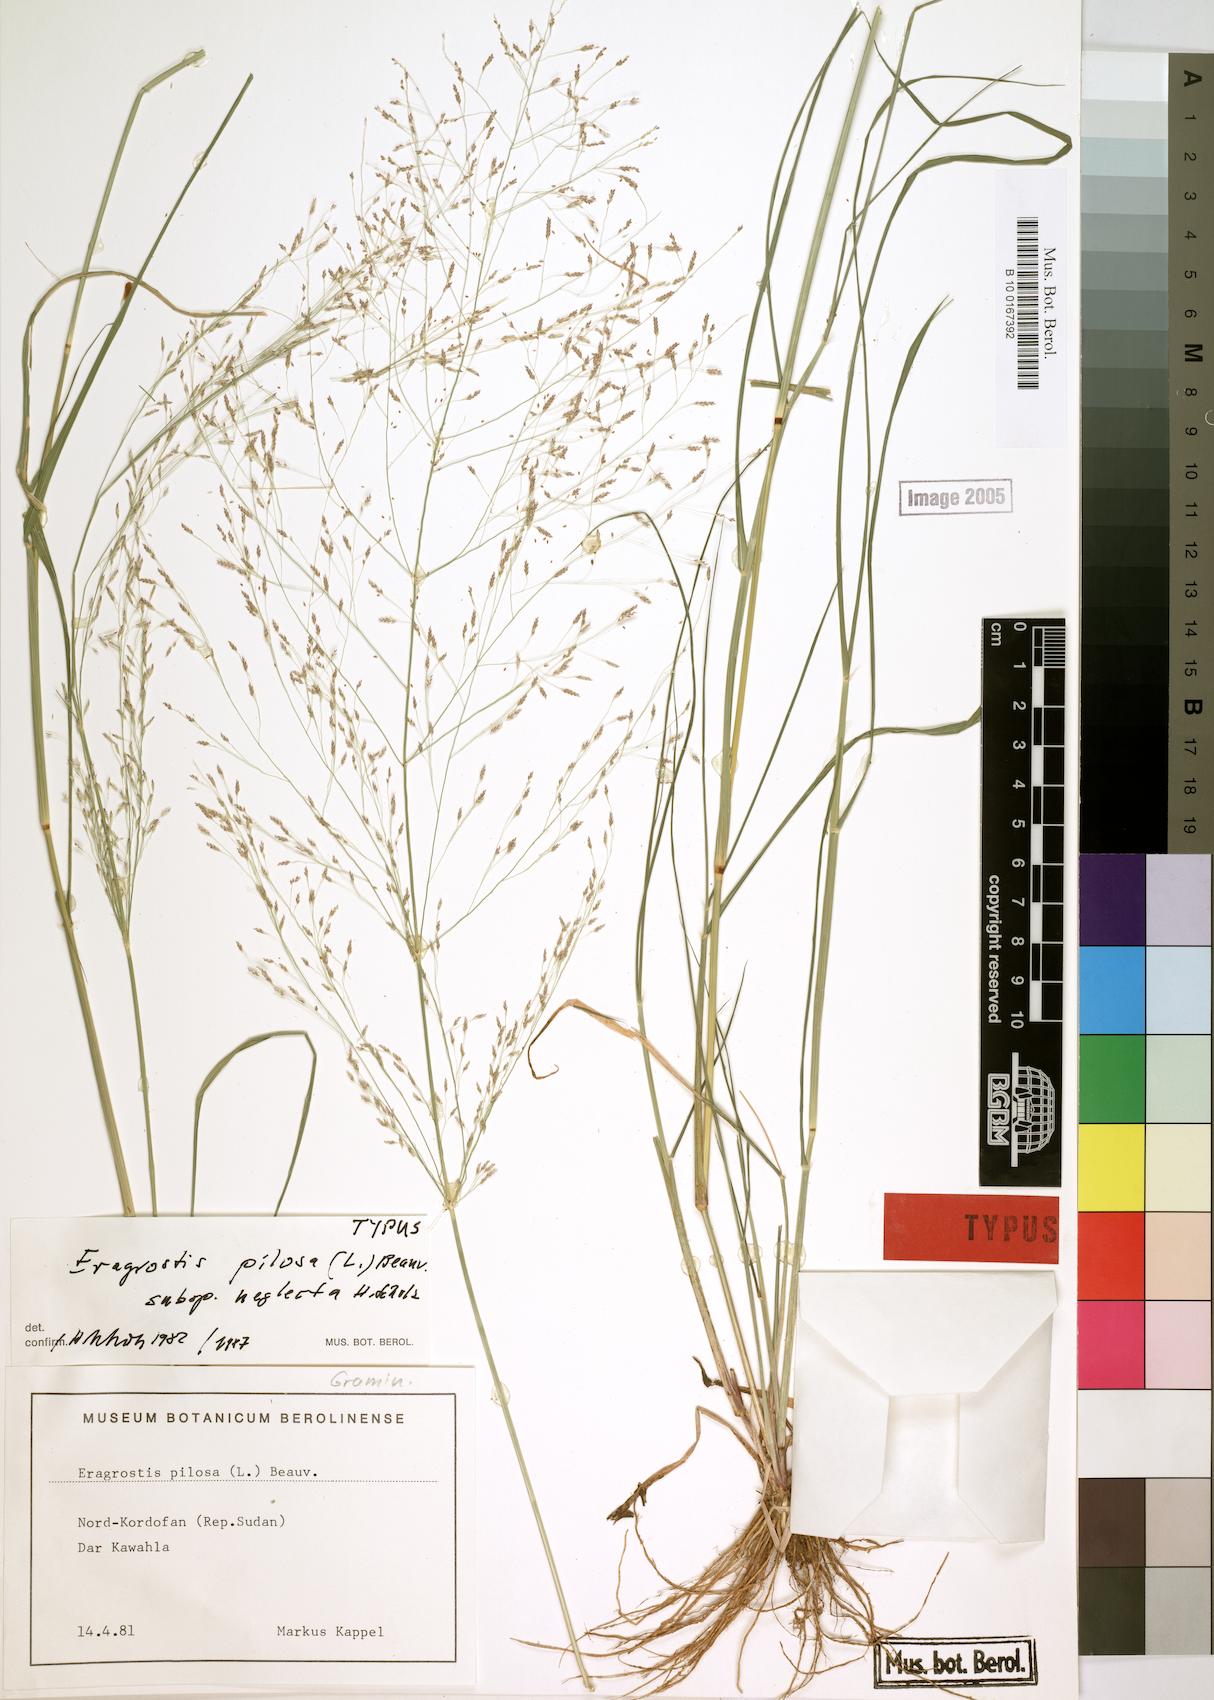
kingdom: Plantae
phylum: Tracheophyta
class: Liliopsida
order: Poales
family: Poaceae
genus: Eragrostis
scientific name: Eragrostis pilosa
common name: Indian lovegrass
